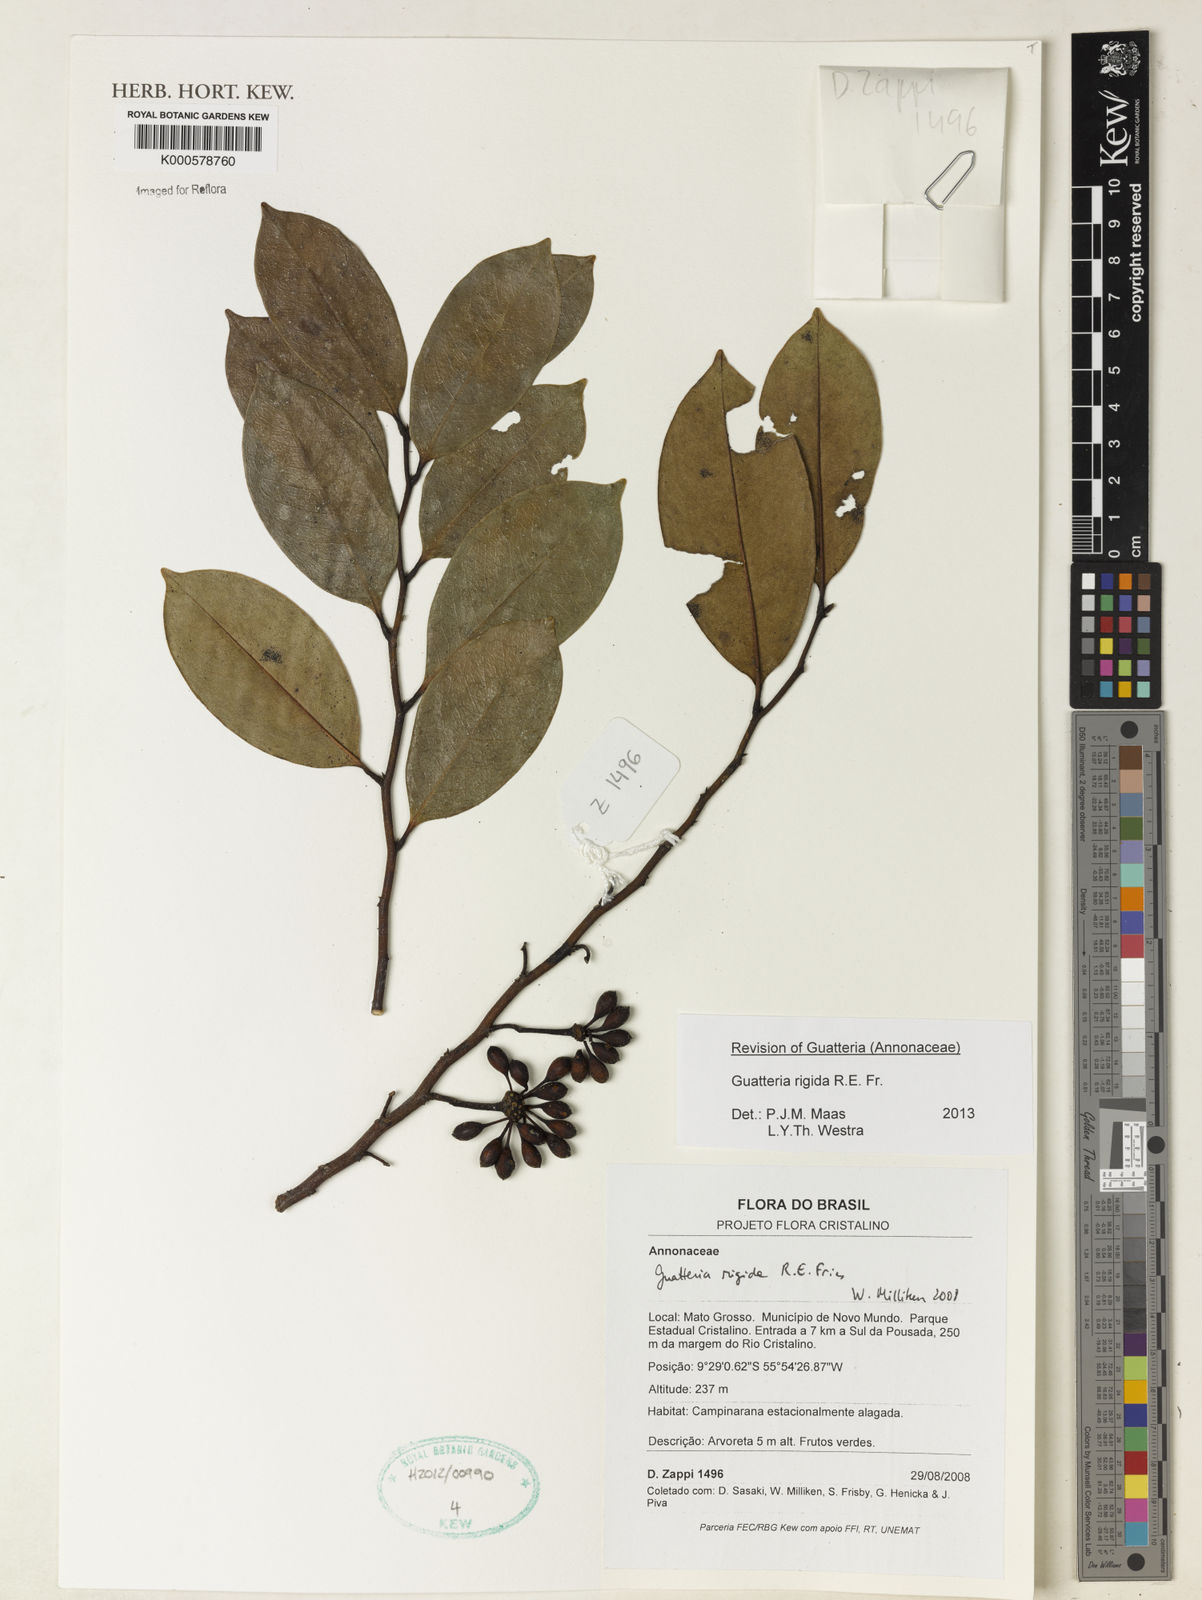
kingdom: Plantae
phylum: Tracheophyta
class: Magnoliopsida
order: Magnoliales
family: Annonaceae
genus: Guatteria
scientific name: Guatteria rigida
